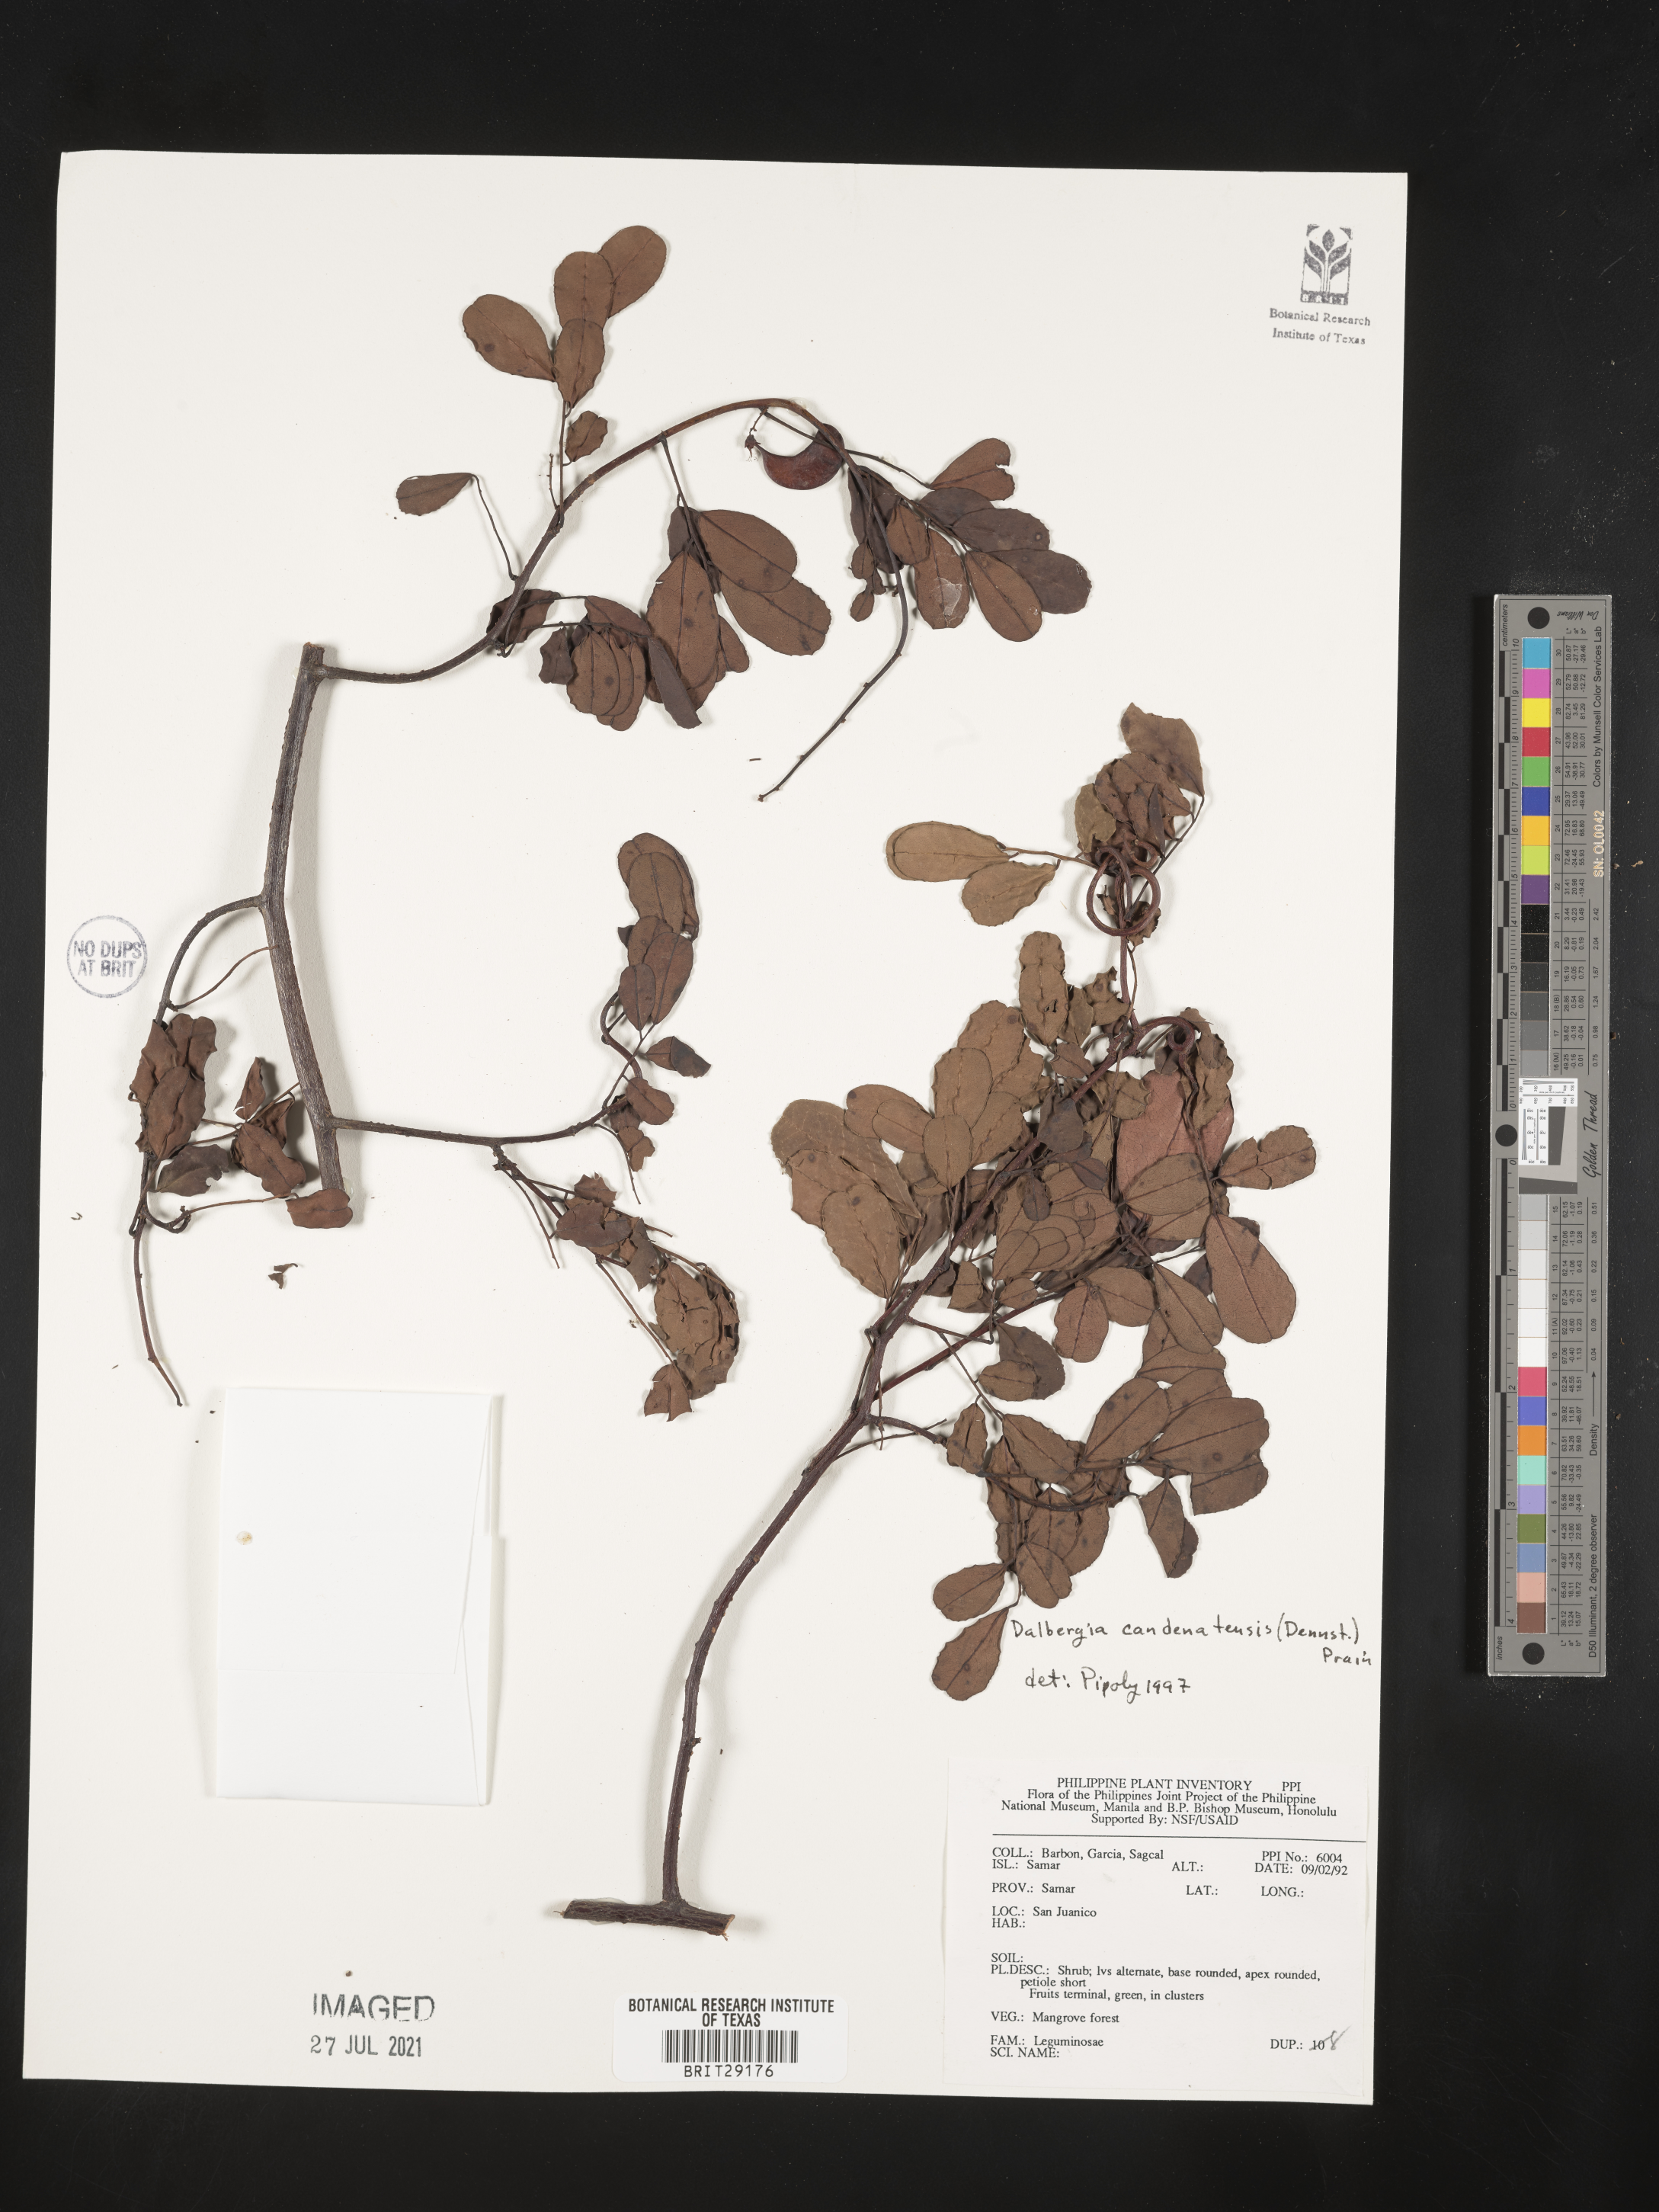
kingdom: Plantae
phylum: Tracheophyta
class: Magnoliopsida
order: Fabales
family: Fabaceae
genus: Dalbergia
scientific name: Dalbergia candenatensis
